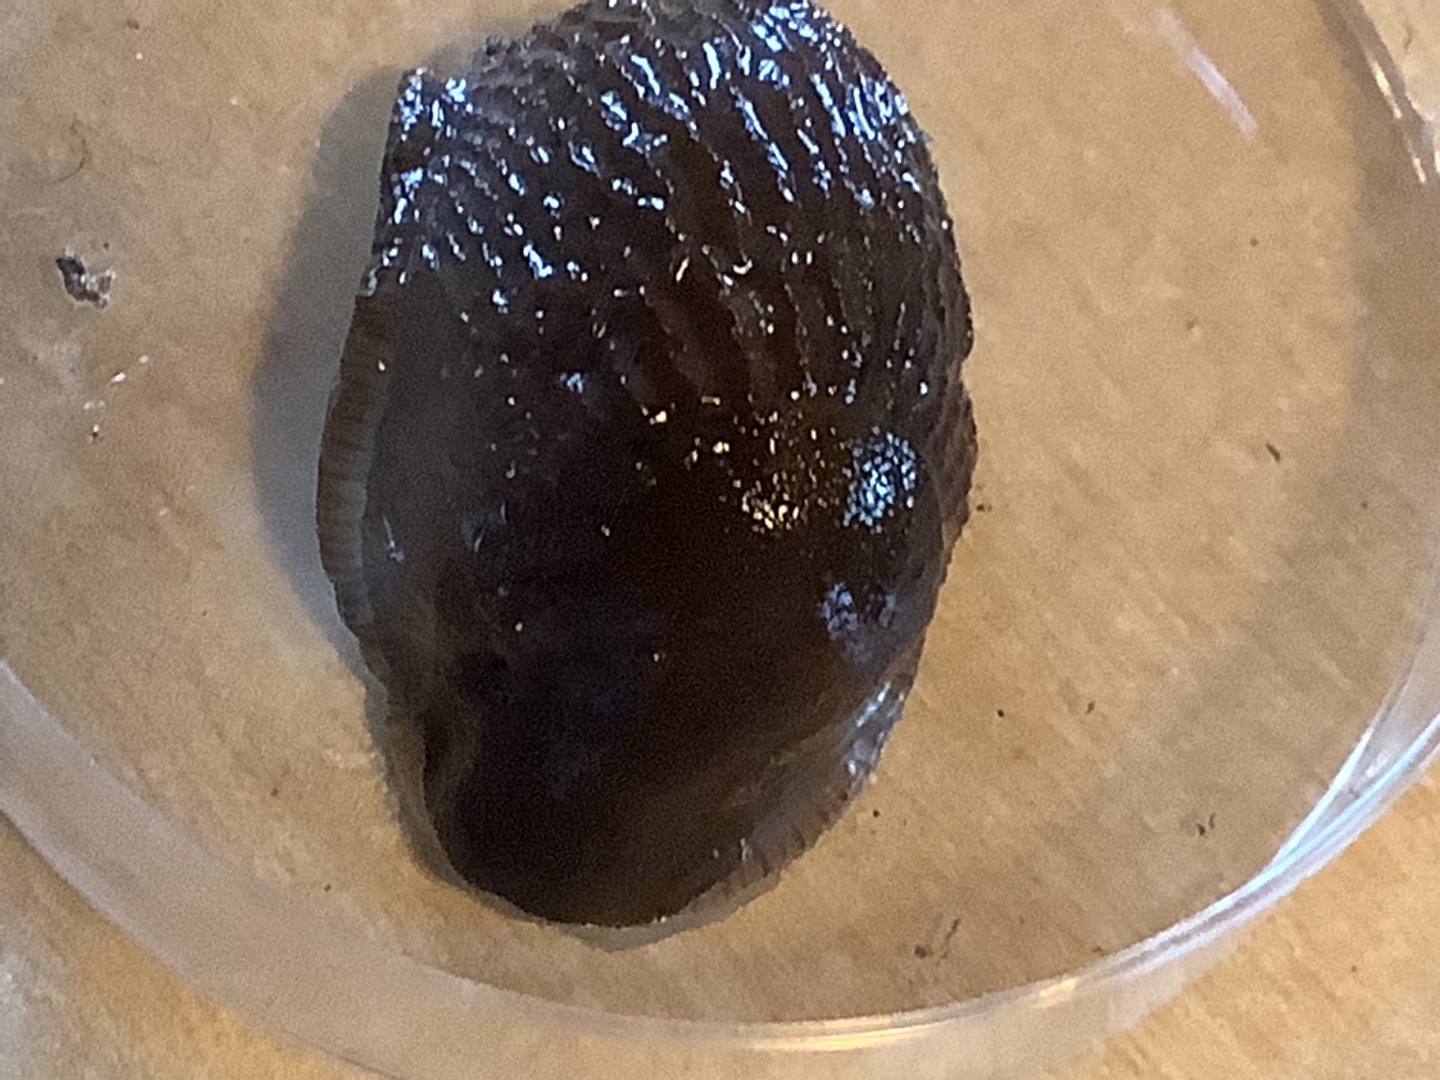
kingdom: Animalia
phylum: Mollusca
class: Gastropoda
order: Stylommatophora
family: Arionidae
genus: Arion
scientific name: Arion
